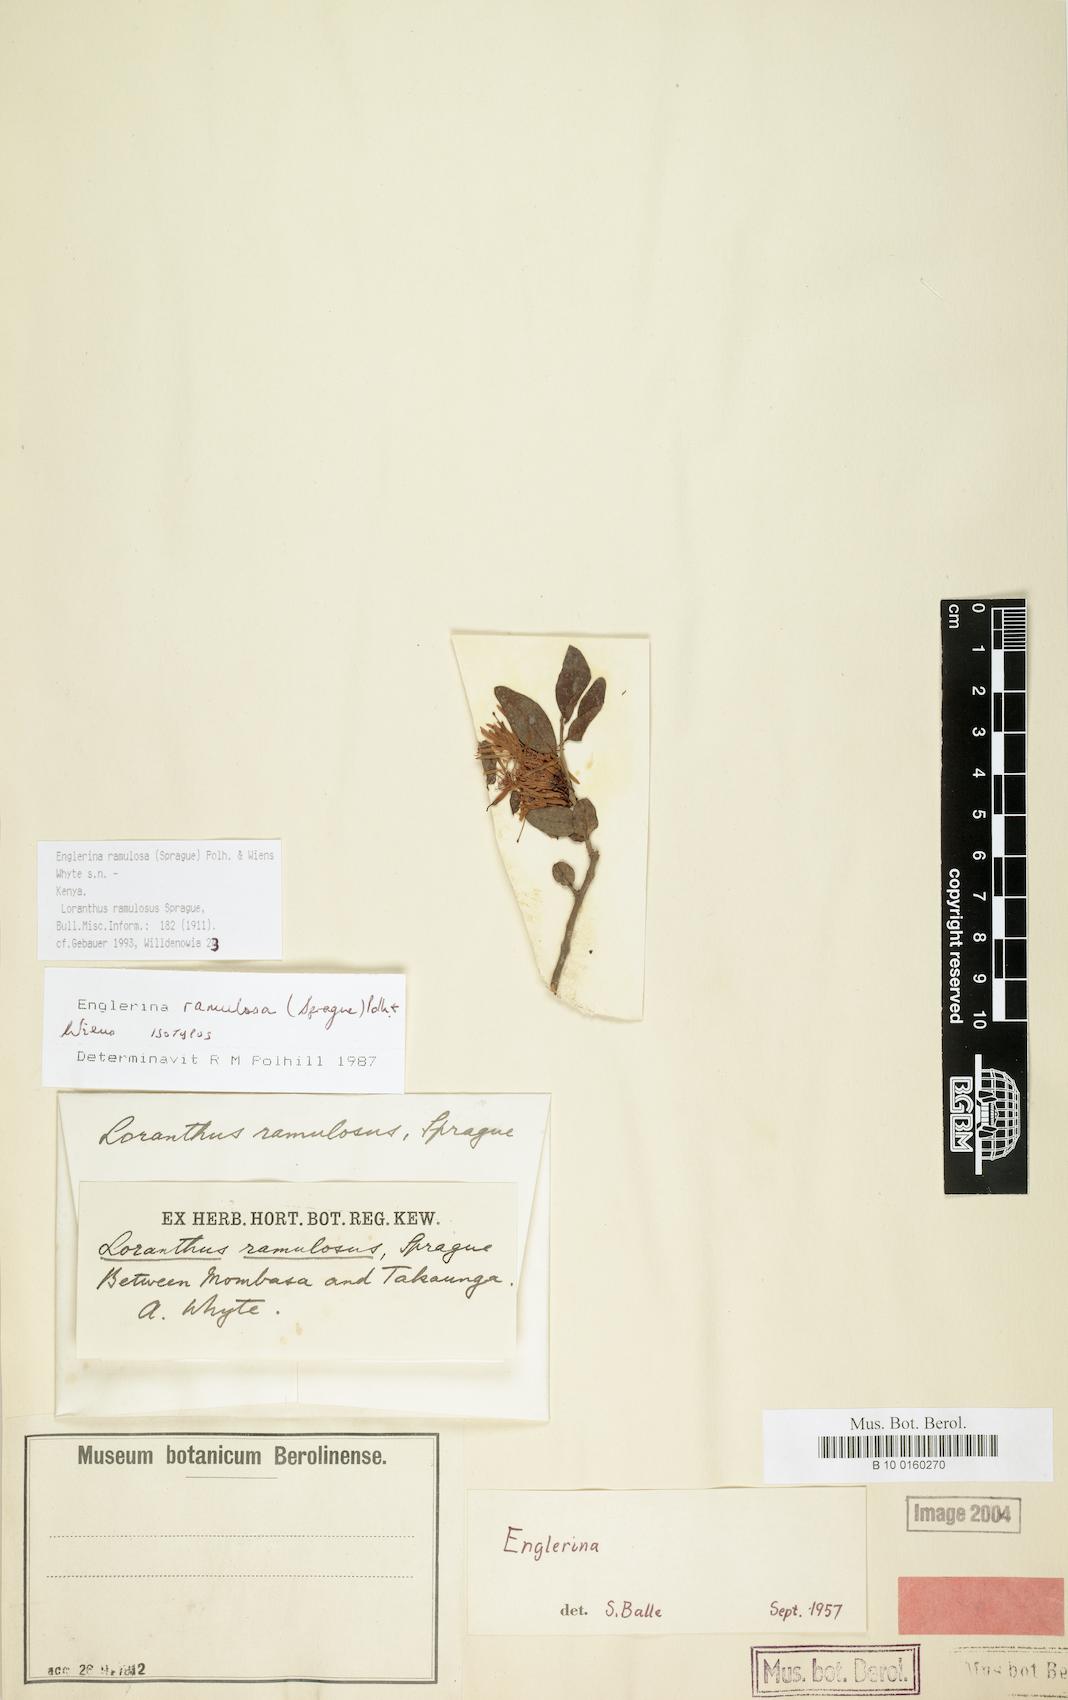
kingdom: Plantae
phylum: Tracheophyta
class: Magnoliopsida
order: Santalales
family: Loranthaceae
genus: Englerina
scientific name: Englerina ramulosa
